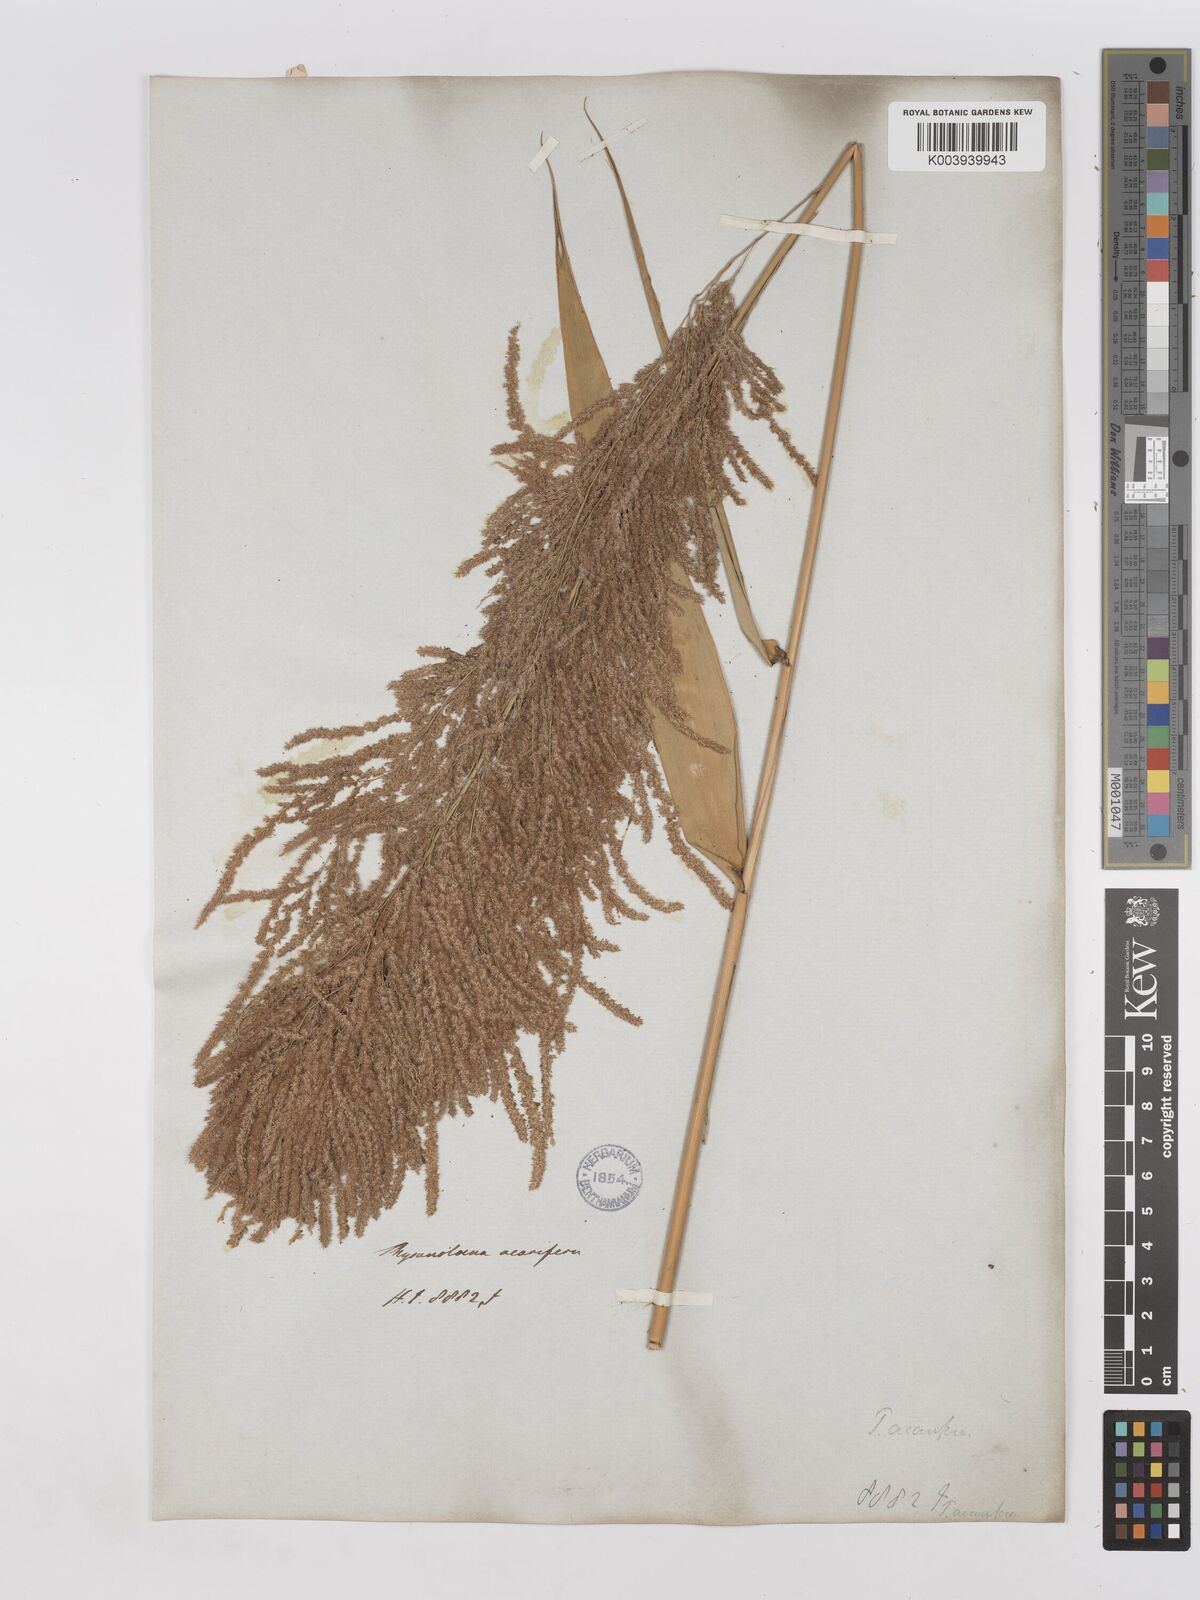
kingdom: Plantae
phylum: Tracheophyta
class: Liliopsida
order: Poales
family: Poaceae
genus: Thysanolaena
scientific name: Thysanolaena latifolia
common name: Tiger grass
